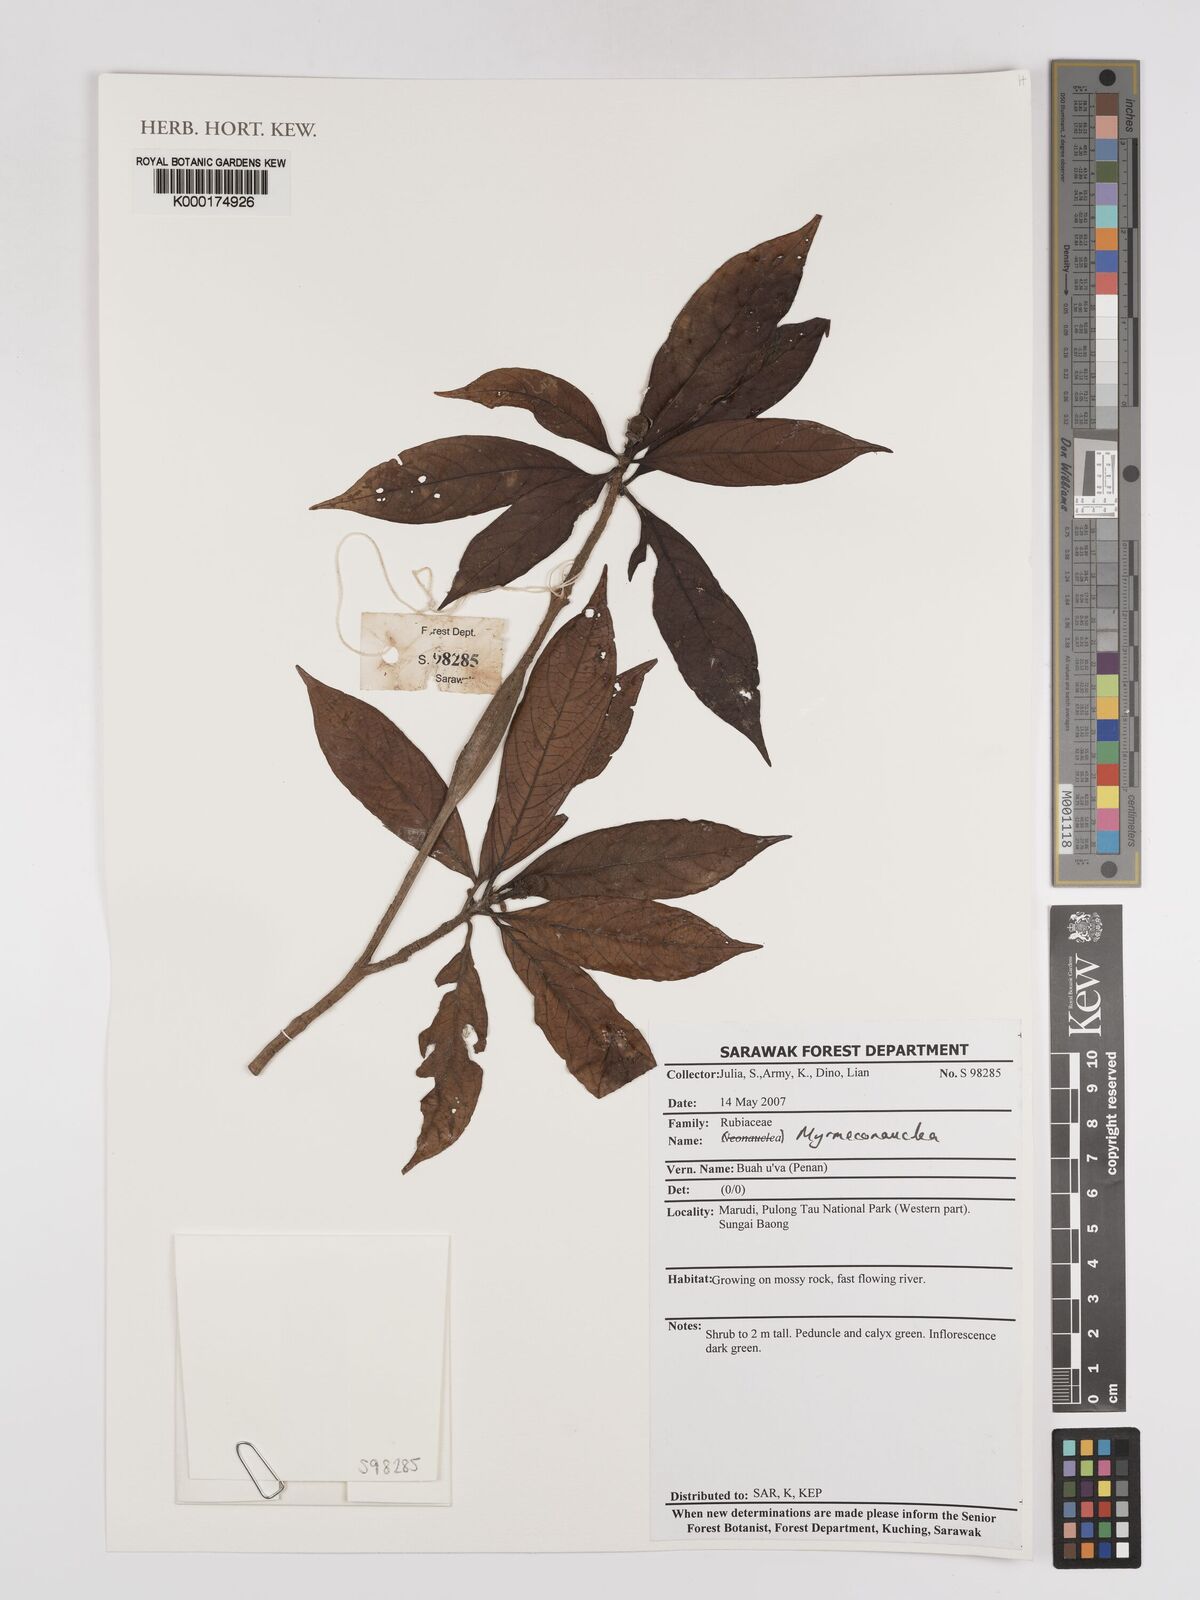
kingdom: Plantae
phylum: Tracheophyta
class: Magnoliopsida
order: Gentianales
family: Rubiaceae
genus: Myrmeconauclea
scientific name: Myrmeconauclea
